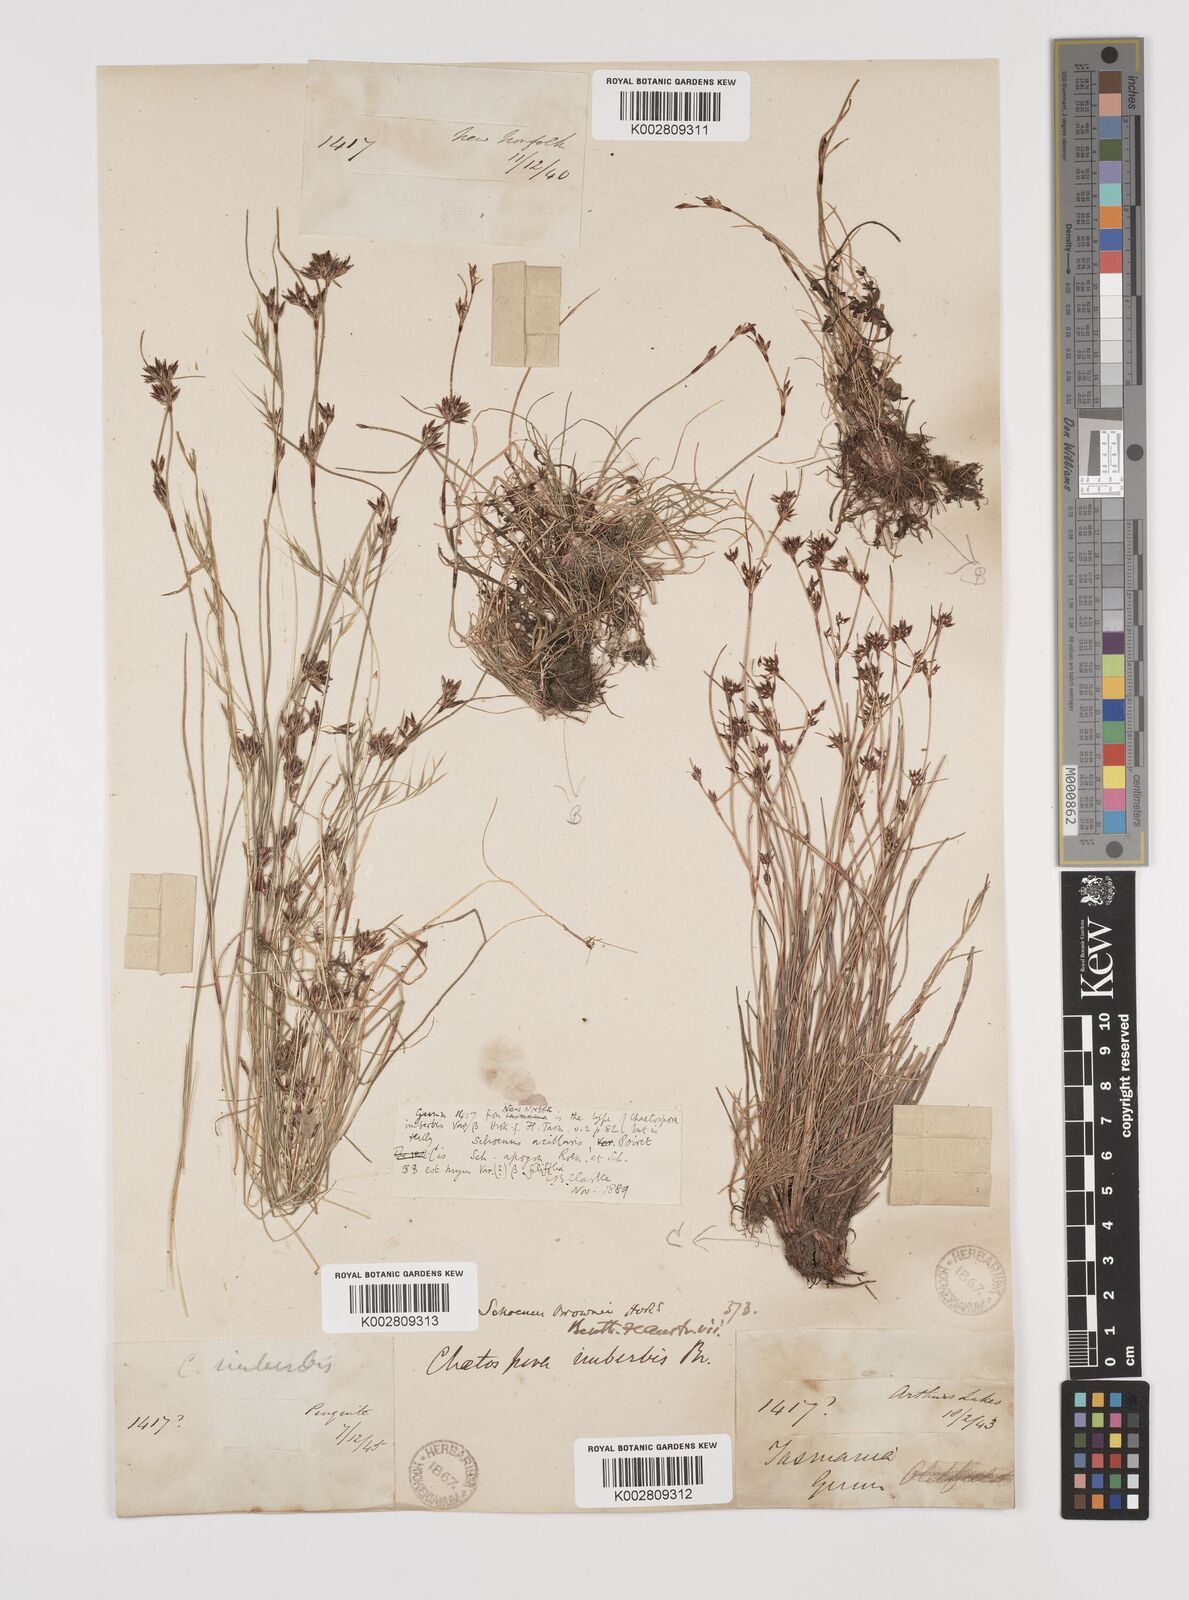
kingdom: Plantae
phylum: Tracheophyta
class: Liliopsida
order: Poales
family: Cyperaceae
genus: Schoenus
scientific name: Schoenus apogon
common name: Smooth bogrush
